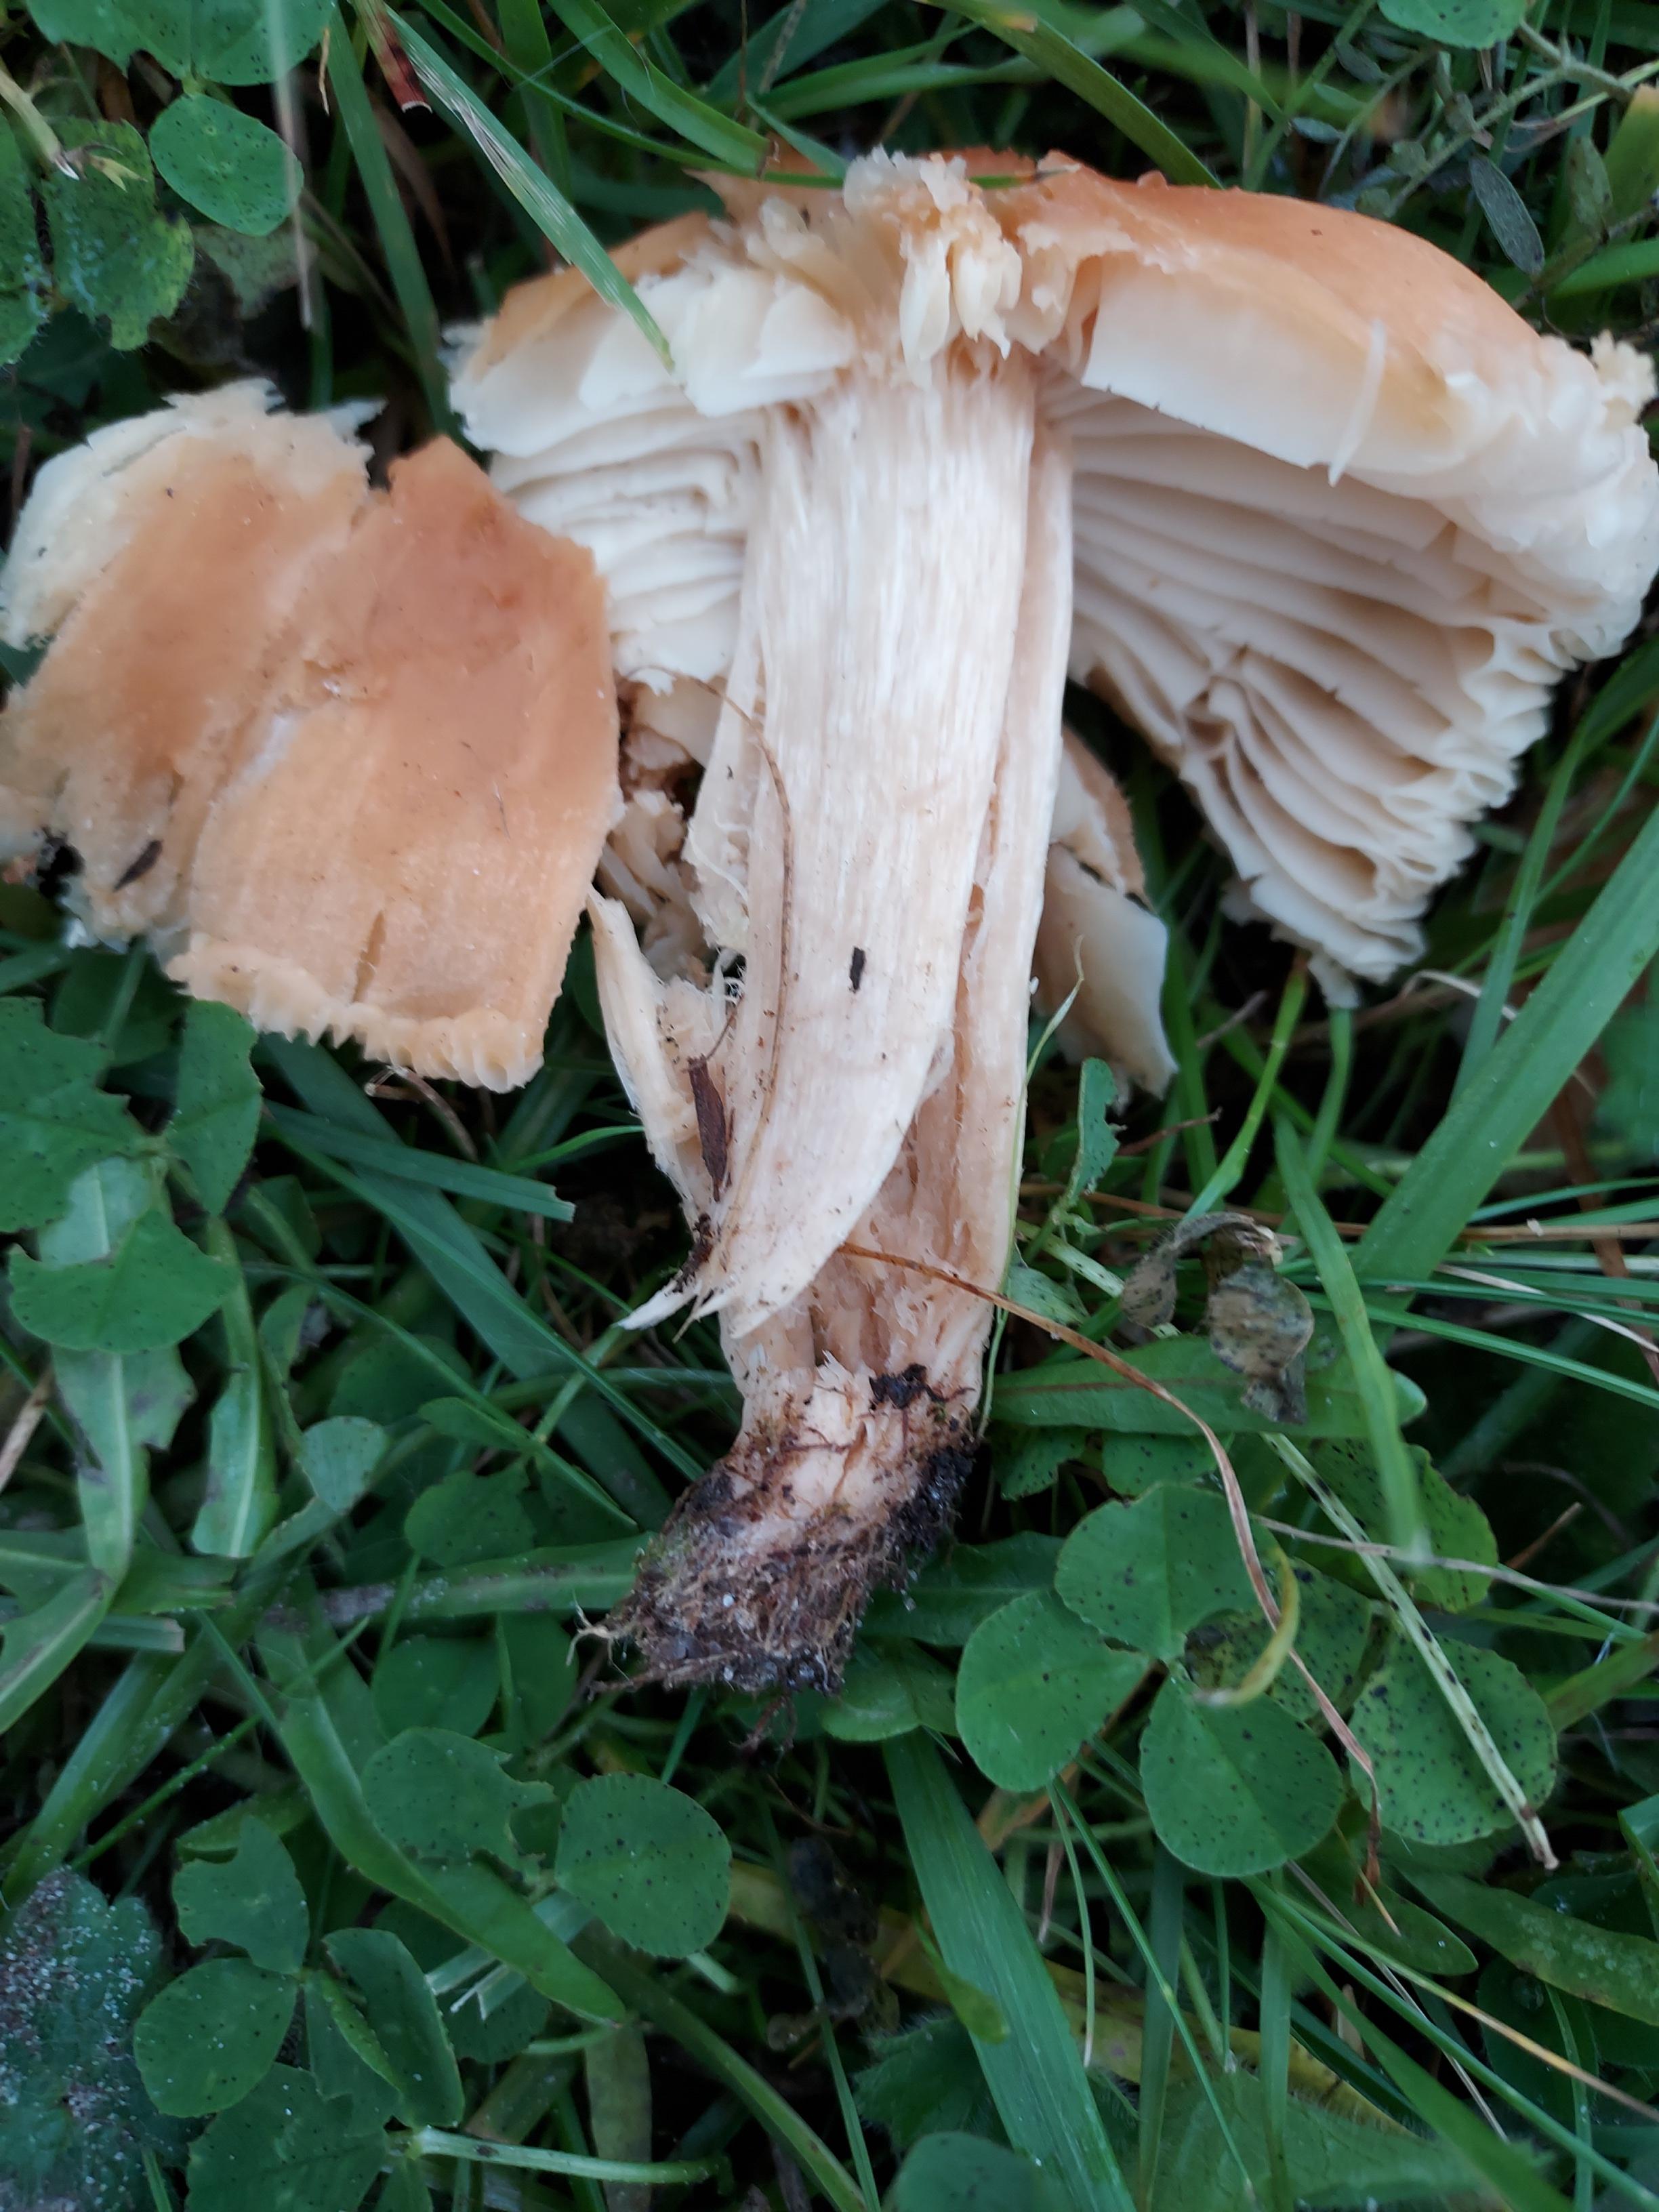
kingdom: Fungi
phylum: Basidiomycota
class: Agaricomycetes
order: Agaricales
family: Hygrophoraceae
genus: Cuphophyllus
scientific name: Cuphophyllus pratensis
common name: eng-vokshat
